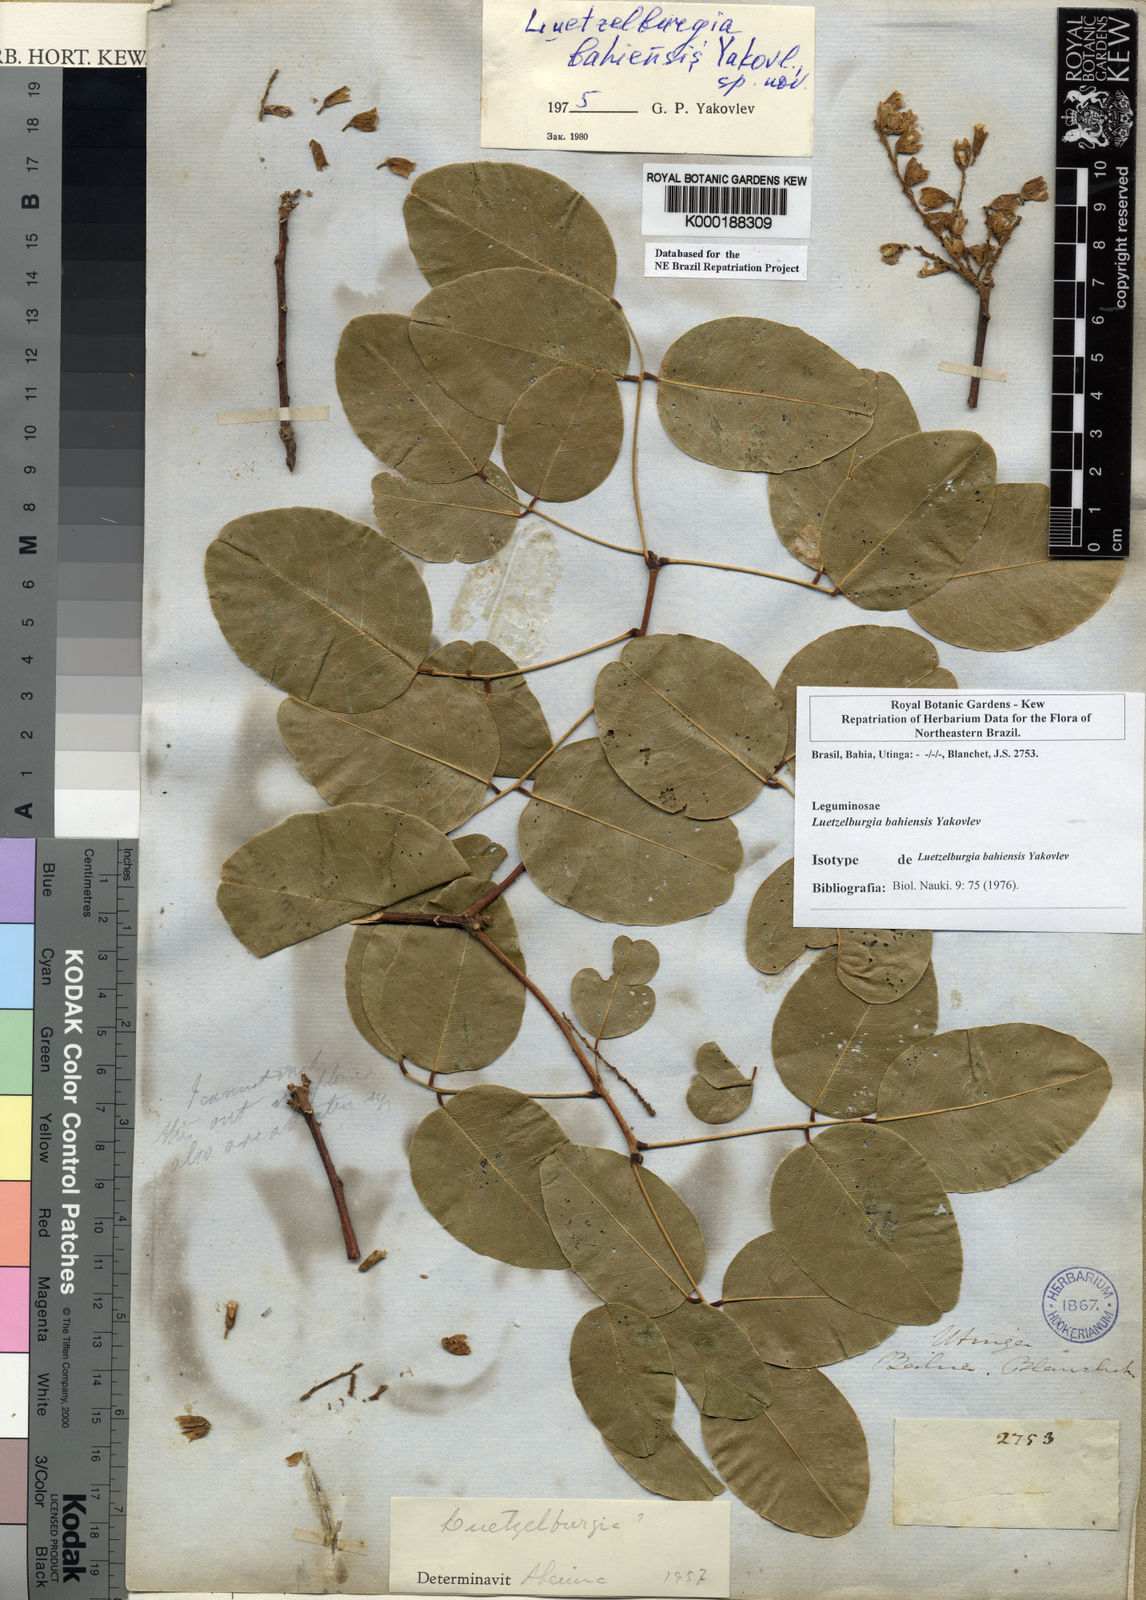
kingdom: Plantae
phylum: Tracheophyta
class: Magnoliopsida
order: Fabales
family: Fabaceae
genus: Luetzelburgia
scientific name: Luetzelburgia bahiensis
